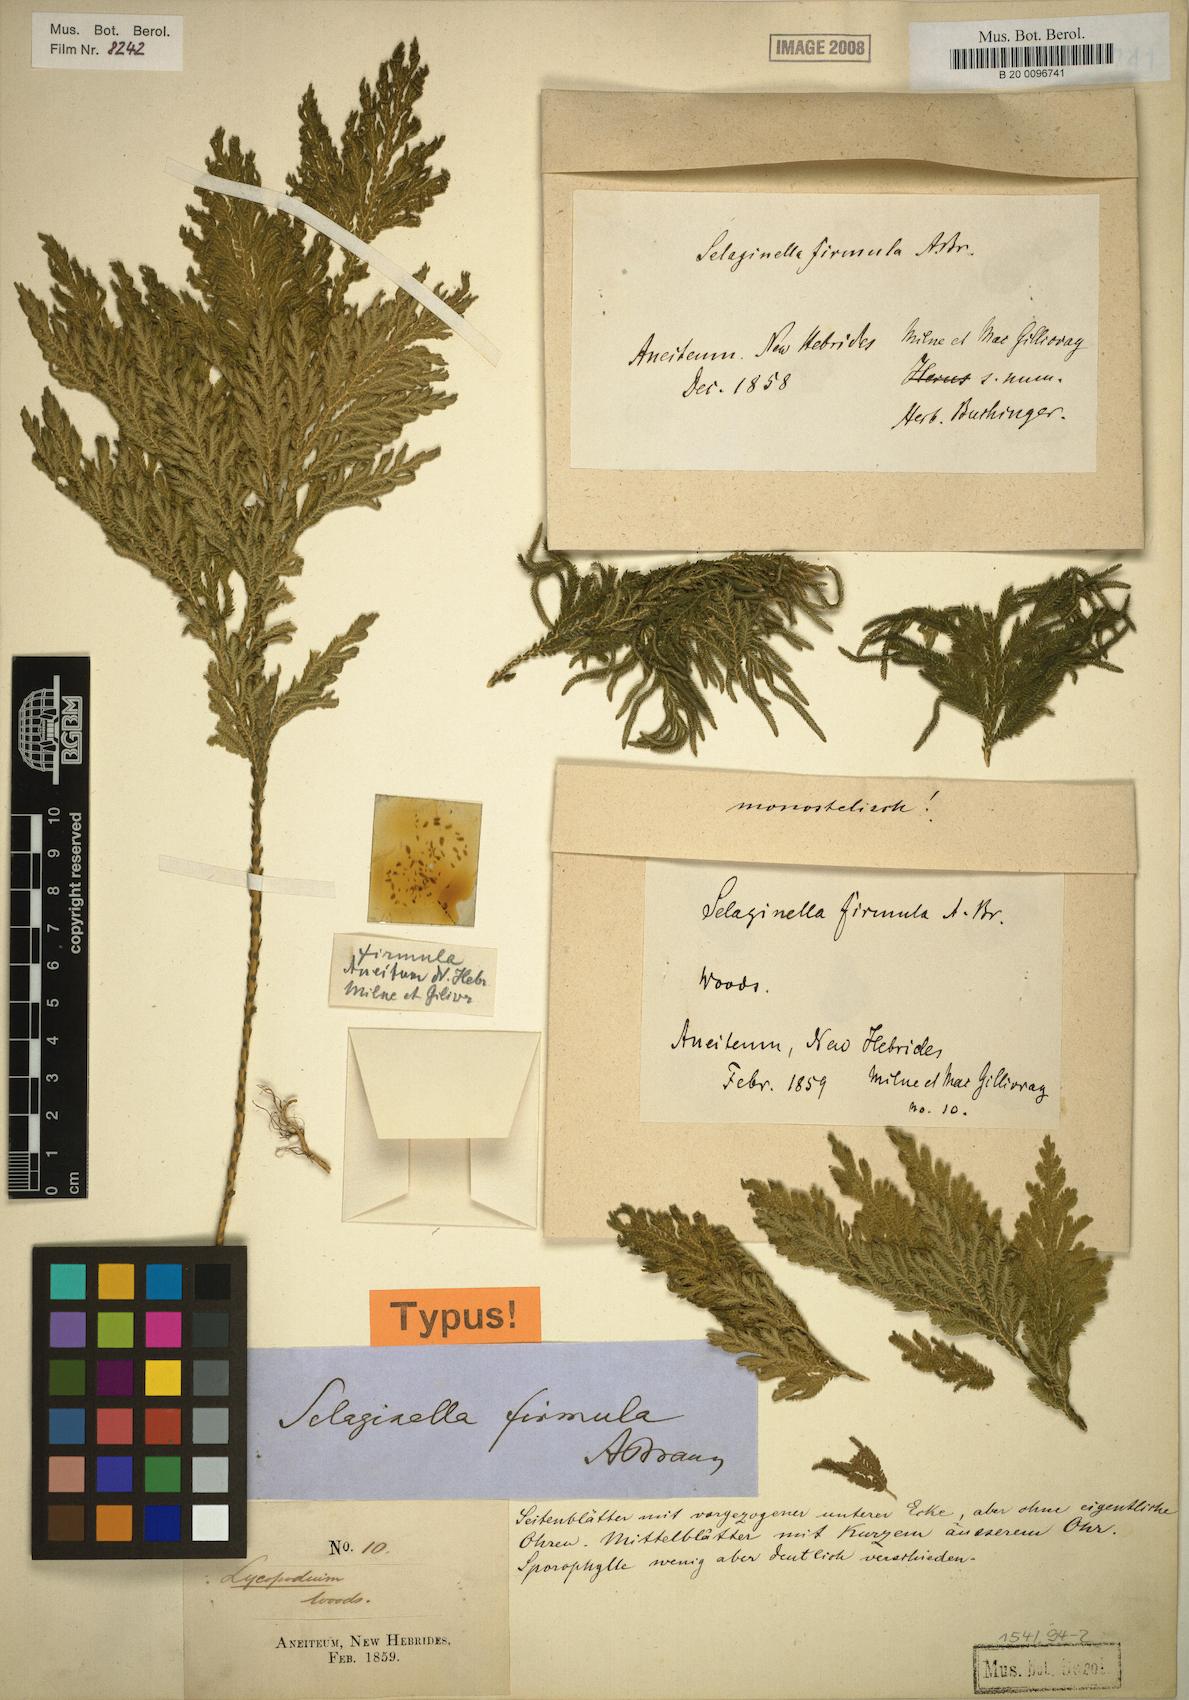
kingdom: Plantae
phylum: Tracheophyta
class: Lycopodiopsida
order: Selaginellales
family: Selaginellaceae
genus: Selaginella
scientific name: Selaginella firmula
